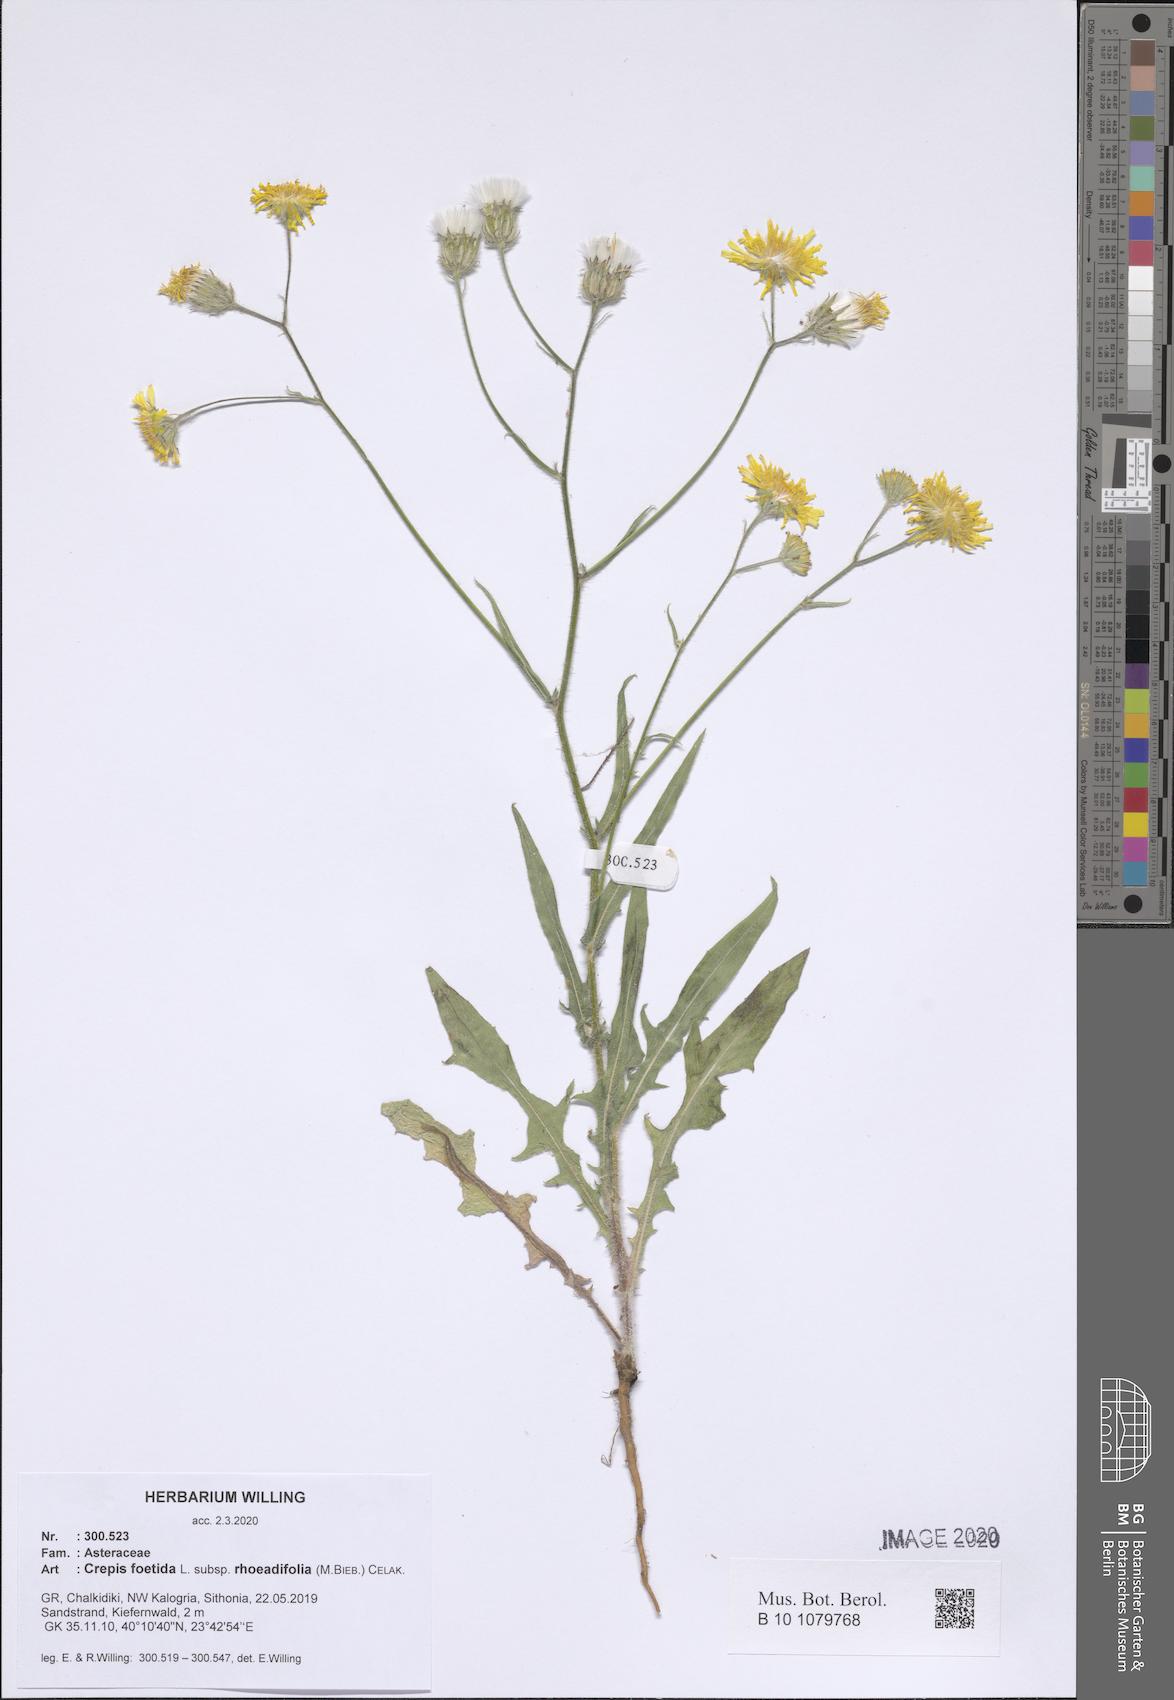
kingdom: Plantae
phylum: Tracheophyta
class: Magnoliopsida
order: Asterales
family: Asteraceae
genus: Crepis
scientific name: Crepis foetida
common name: Stinking hawk's-beard
